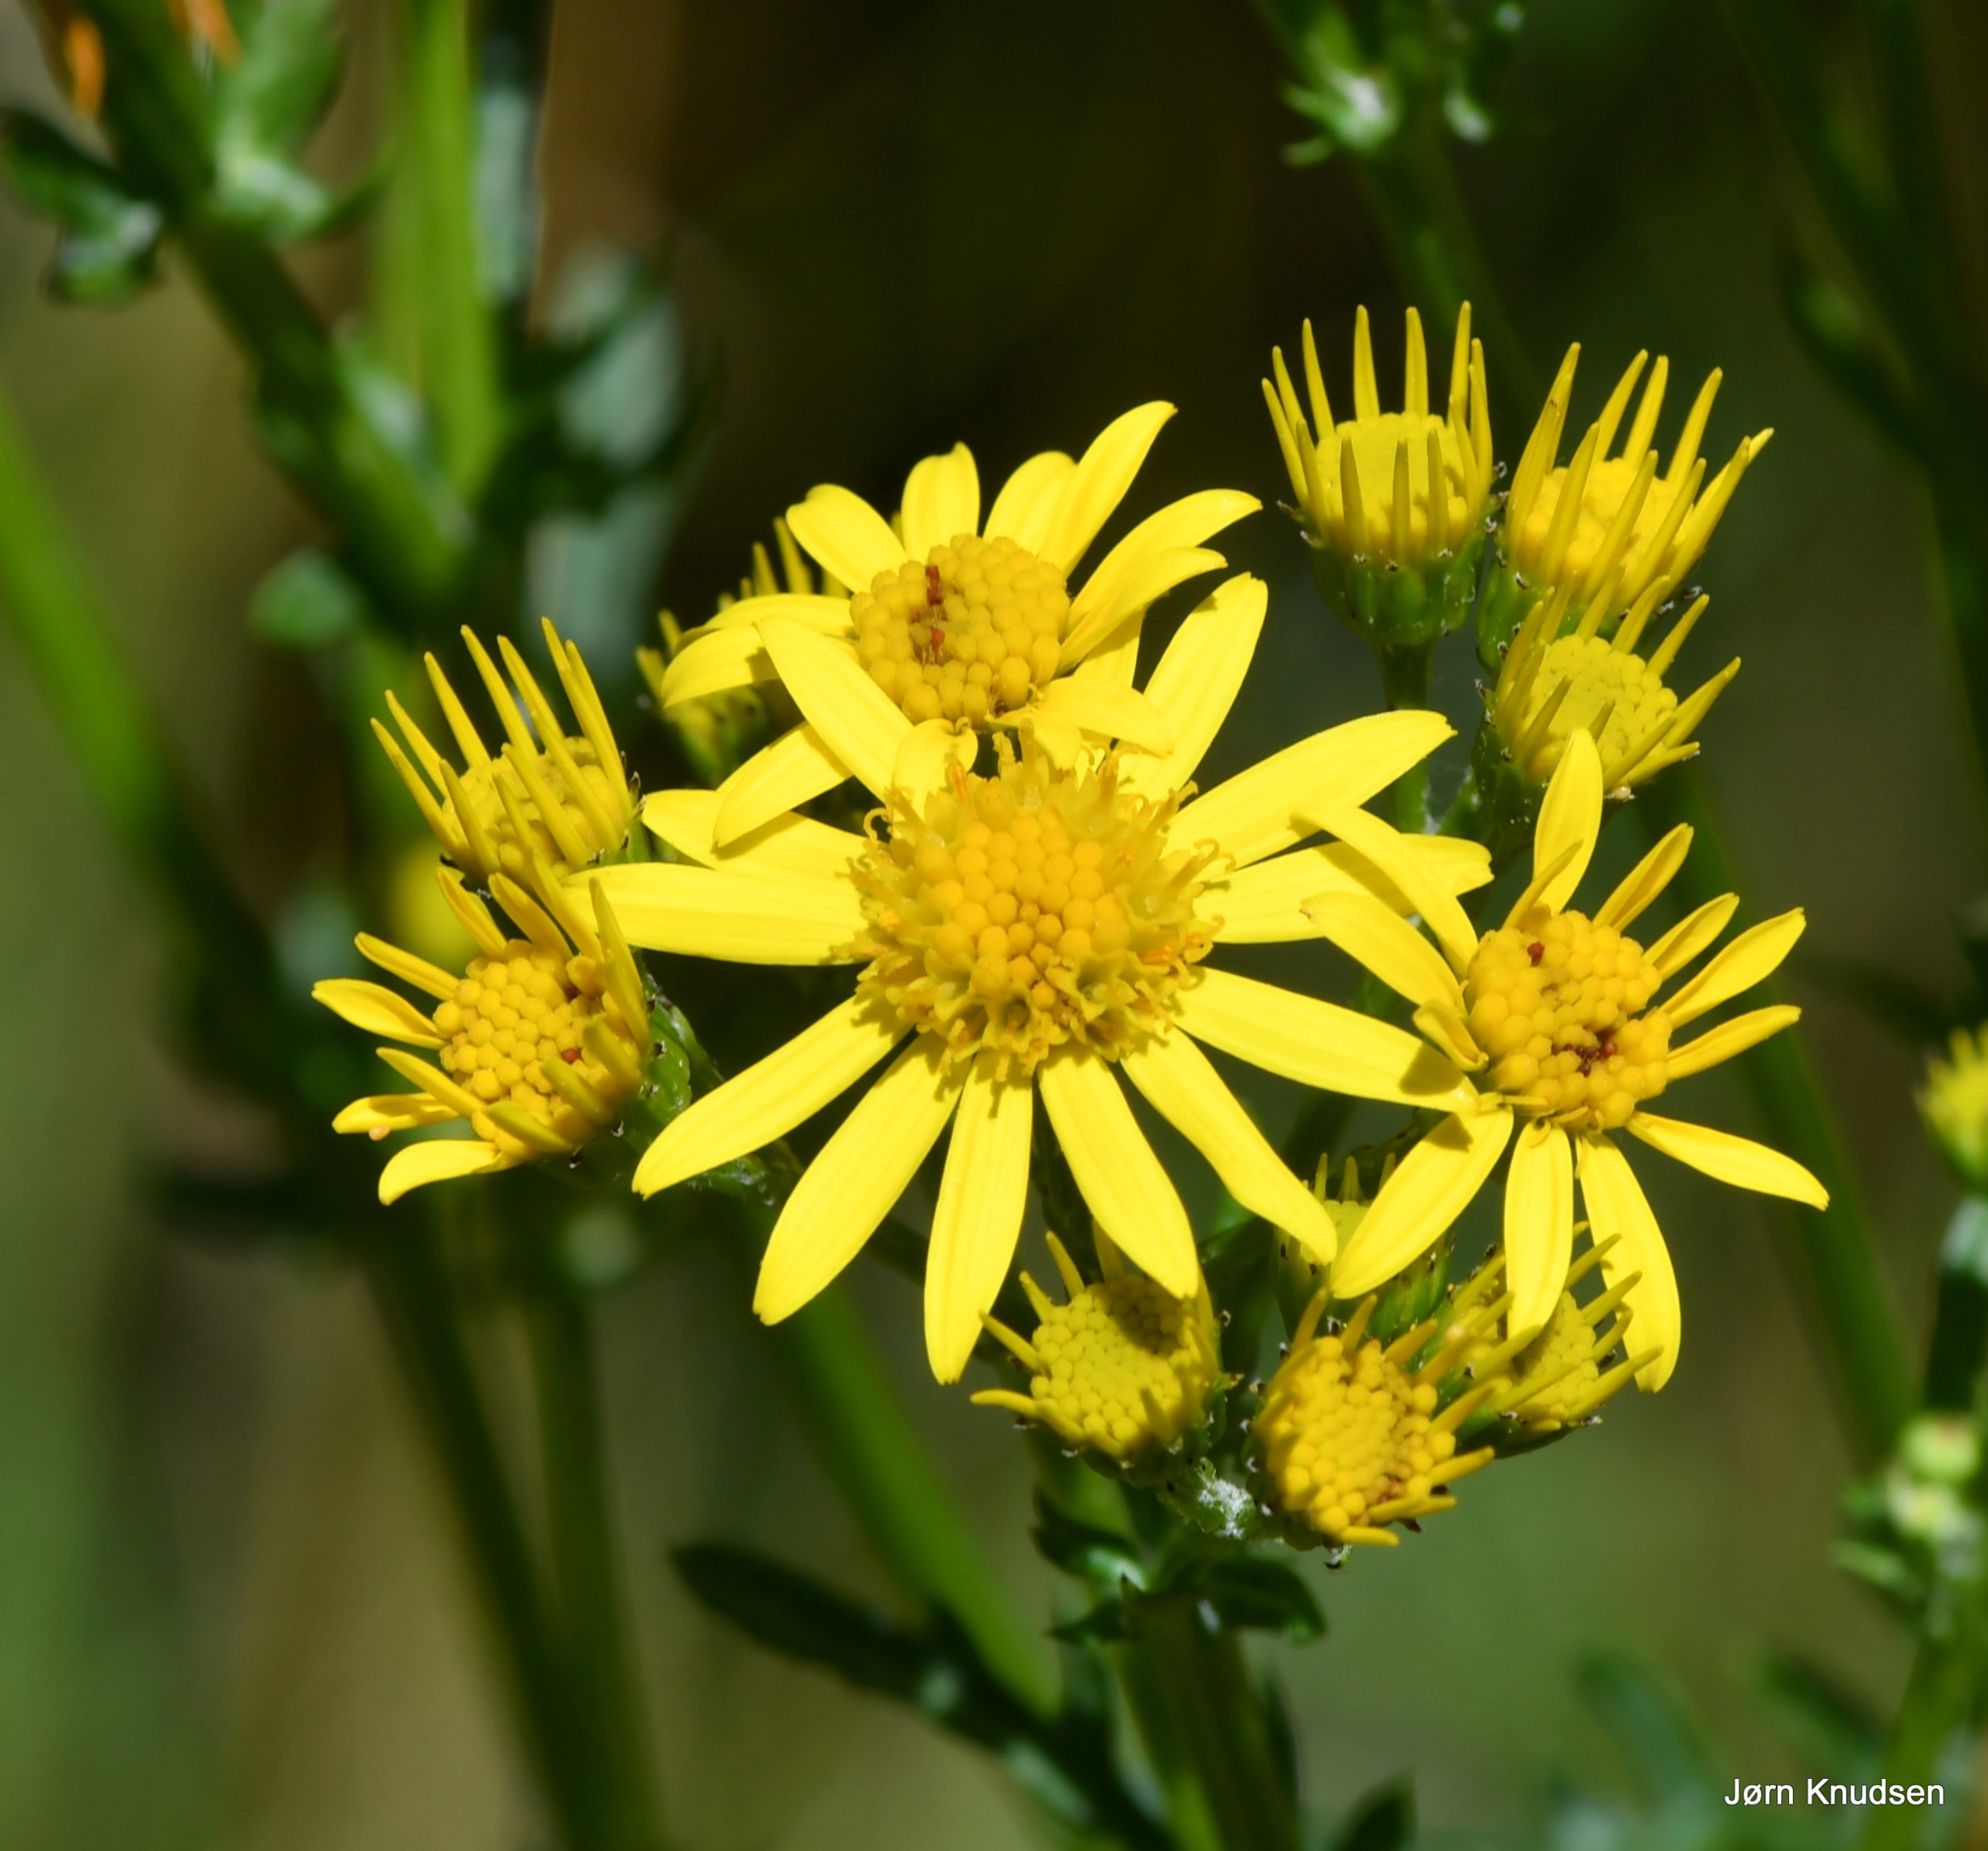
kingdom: Plantae
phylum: Tracheophyta
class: Magnoliopsida
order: Asterales
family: Asteraceae
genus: Jacobaea
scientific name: Jacobaea vulgaris
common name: Eng-brandbæger
